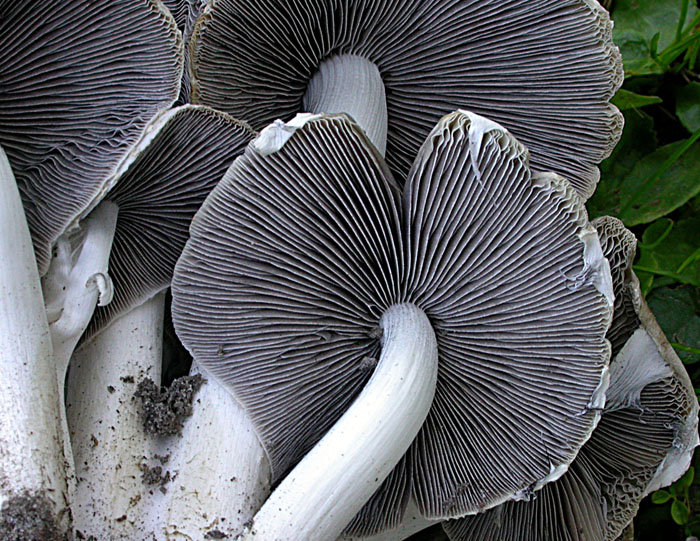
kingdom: Fungi
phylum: Basidiomycota
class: Agaricomycetes
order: Agaricales
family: Psathyrellaceae
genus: Candolleomyces
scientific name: Candolleomyces leucotephrus
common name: askehvid mørkhat
